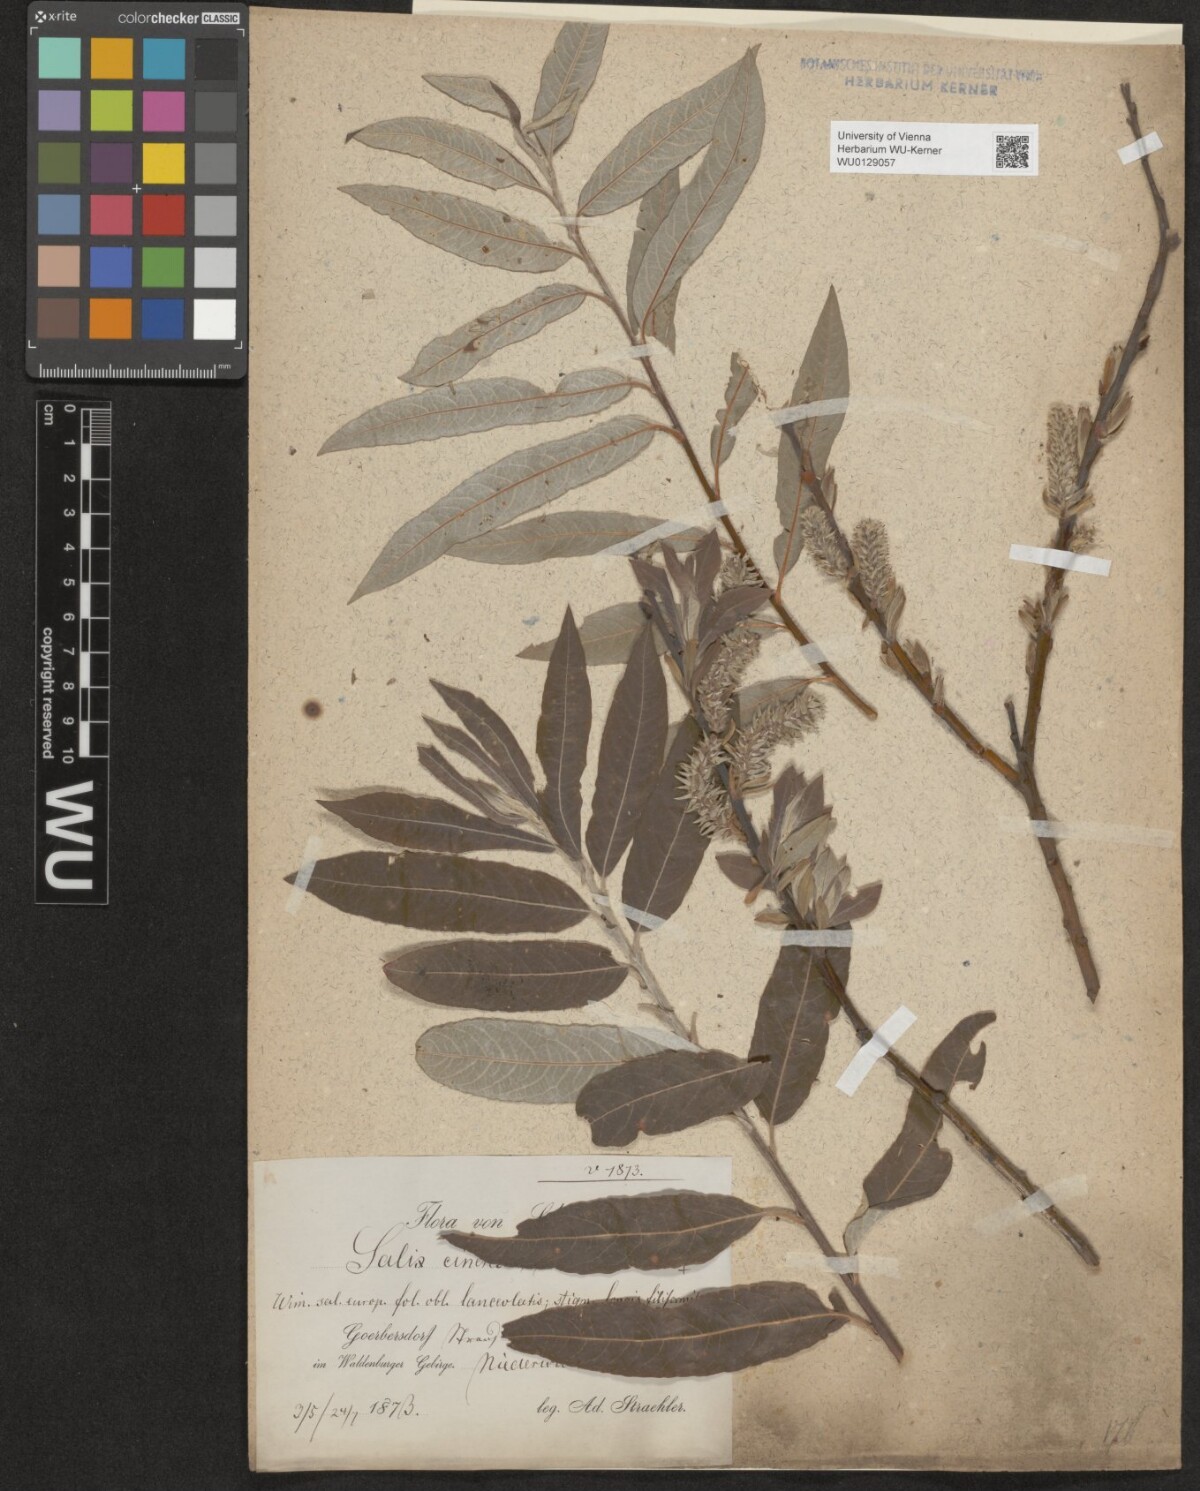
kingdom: Plantae
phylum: Tracheophyta
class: Magnoliopsida
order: Malpighiales
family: Salicaceae
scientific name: Salicaceae
